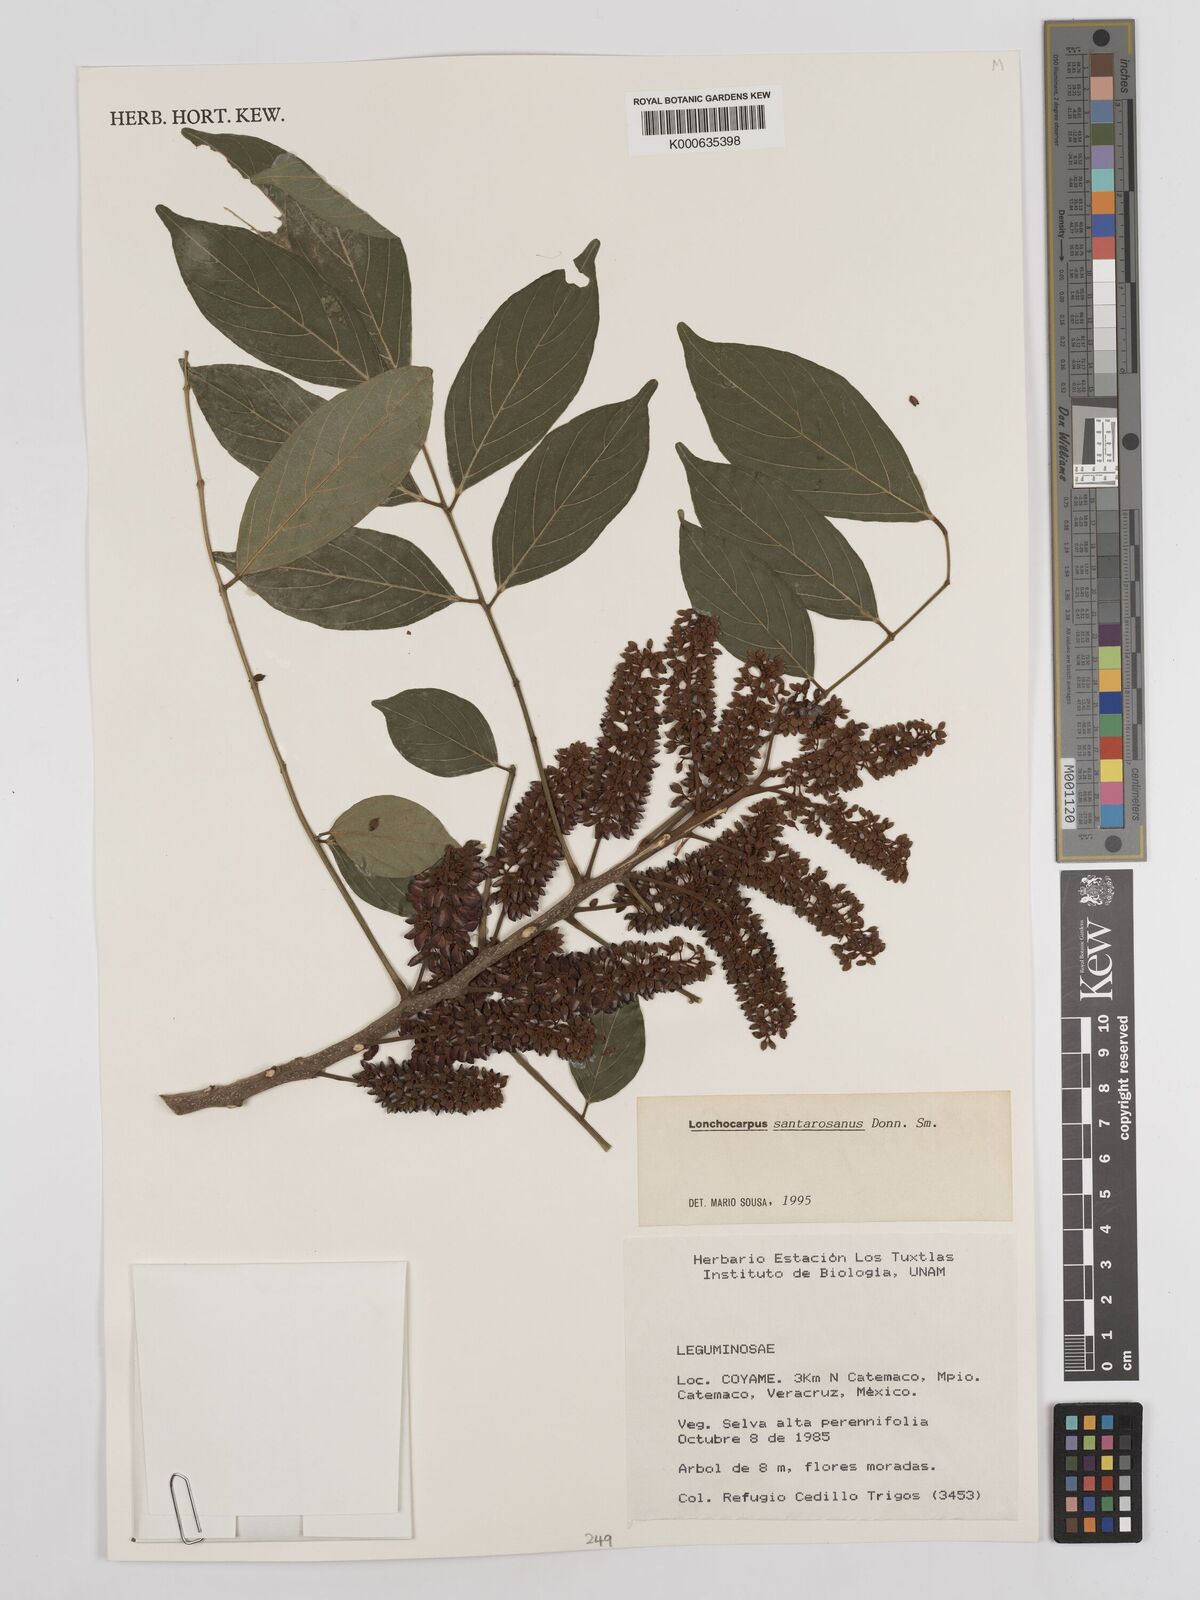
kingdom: Plantae
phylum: Tracheophyta
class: Magnoliopsida
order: Fabales
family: Fabaceae
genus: Lonchocarpus
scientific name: Lonchocarpus santarosanus
